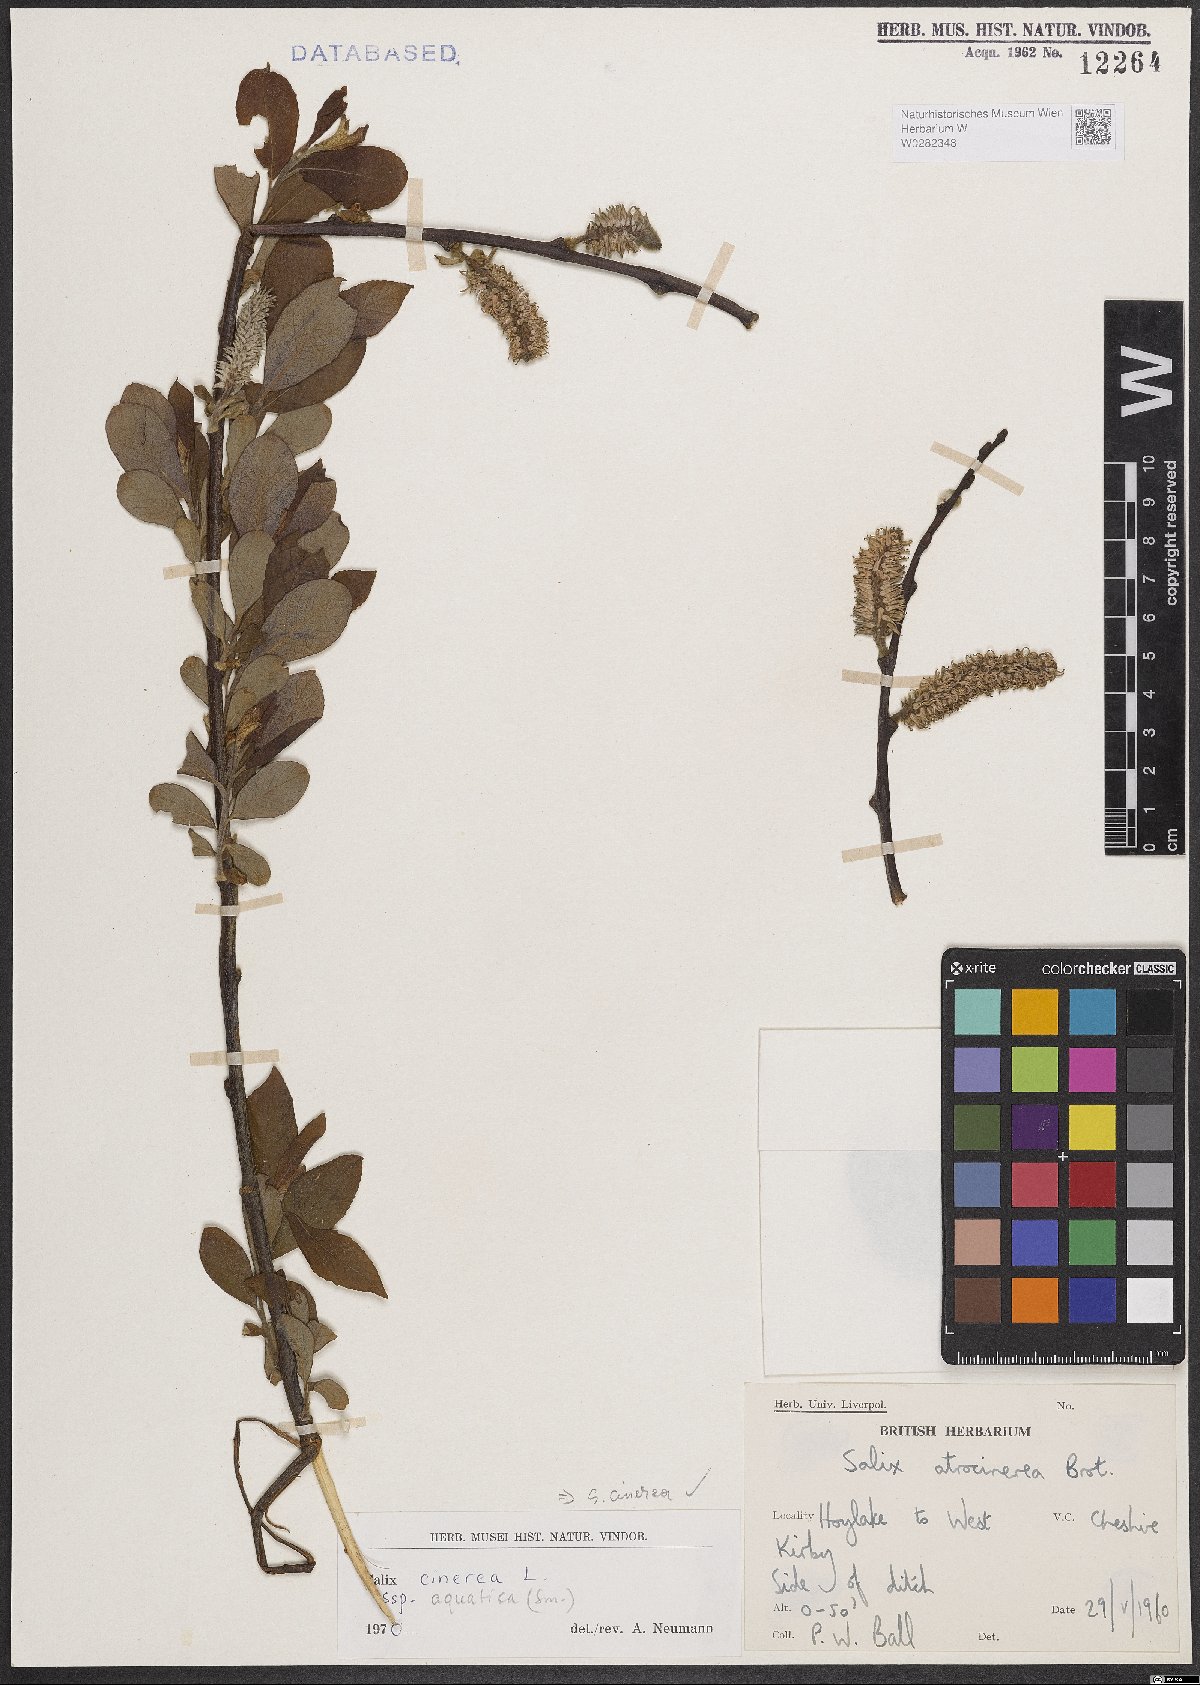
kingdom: Plantae
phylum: Tracheophyta
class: Magnoliopsida
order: Malpighiales
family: Salicaceae
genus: Salix
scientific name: Salix cinerea
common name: Common sallow
